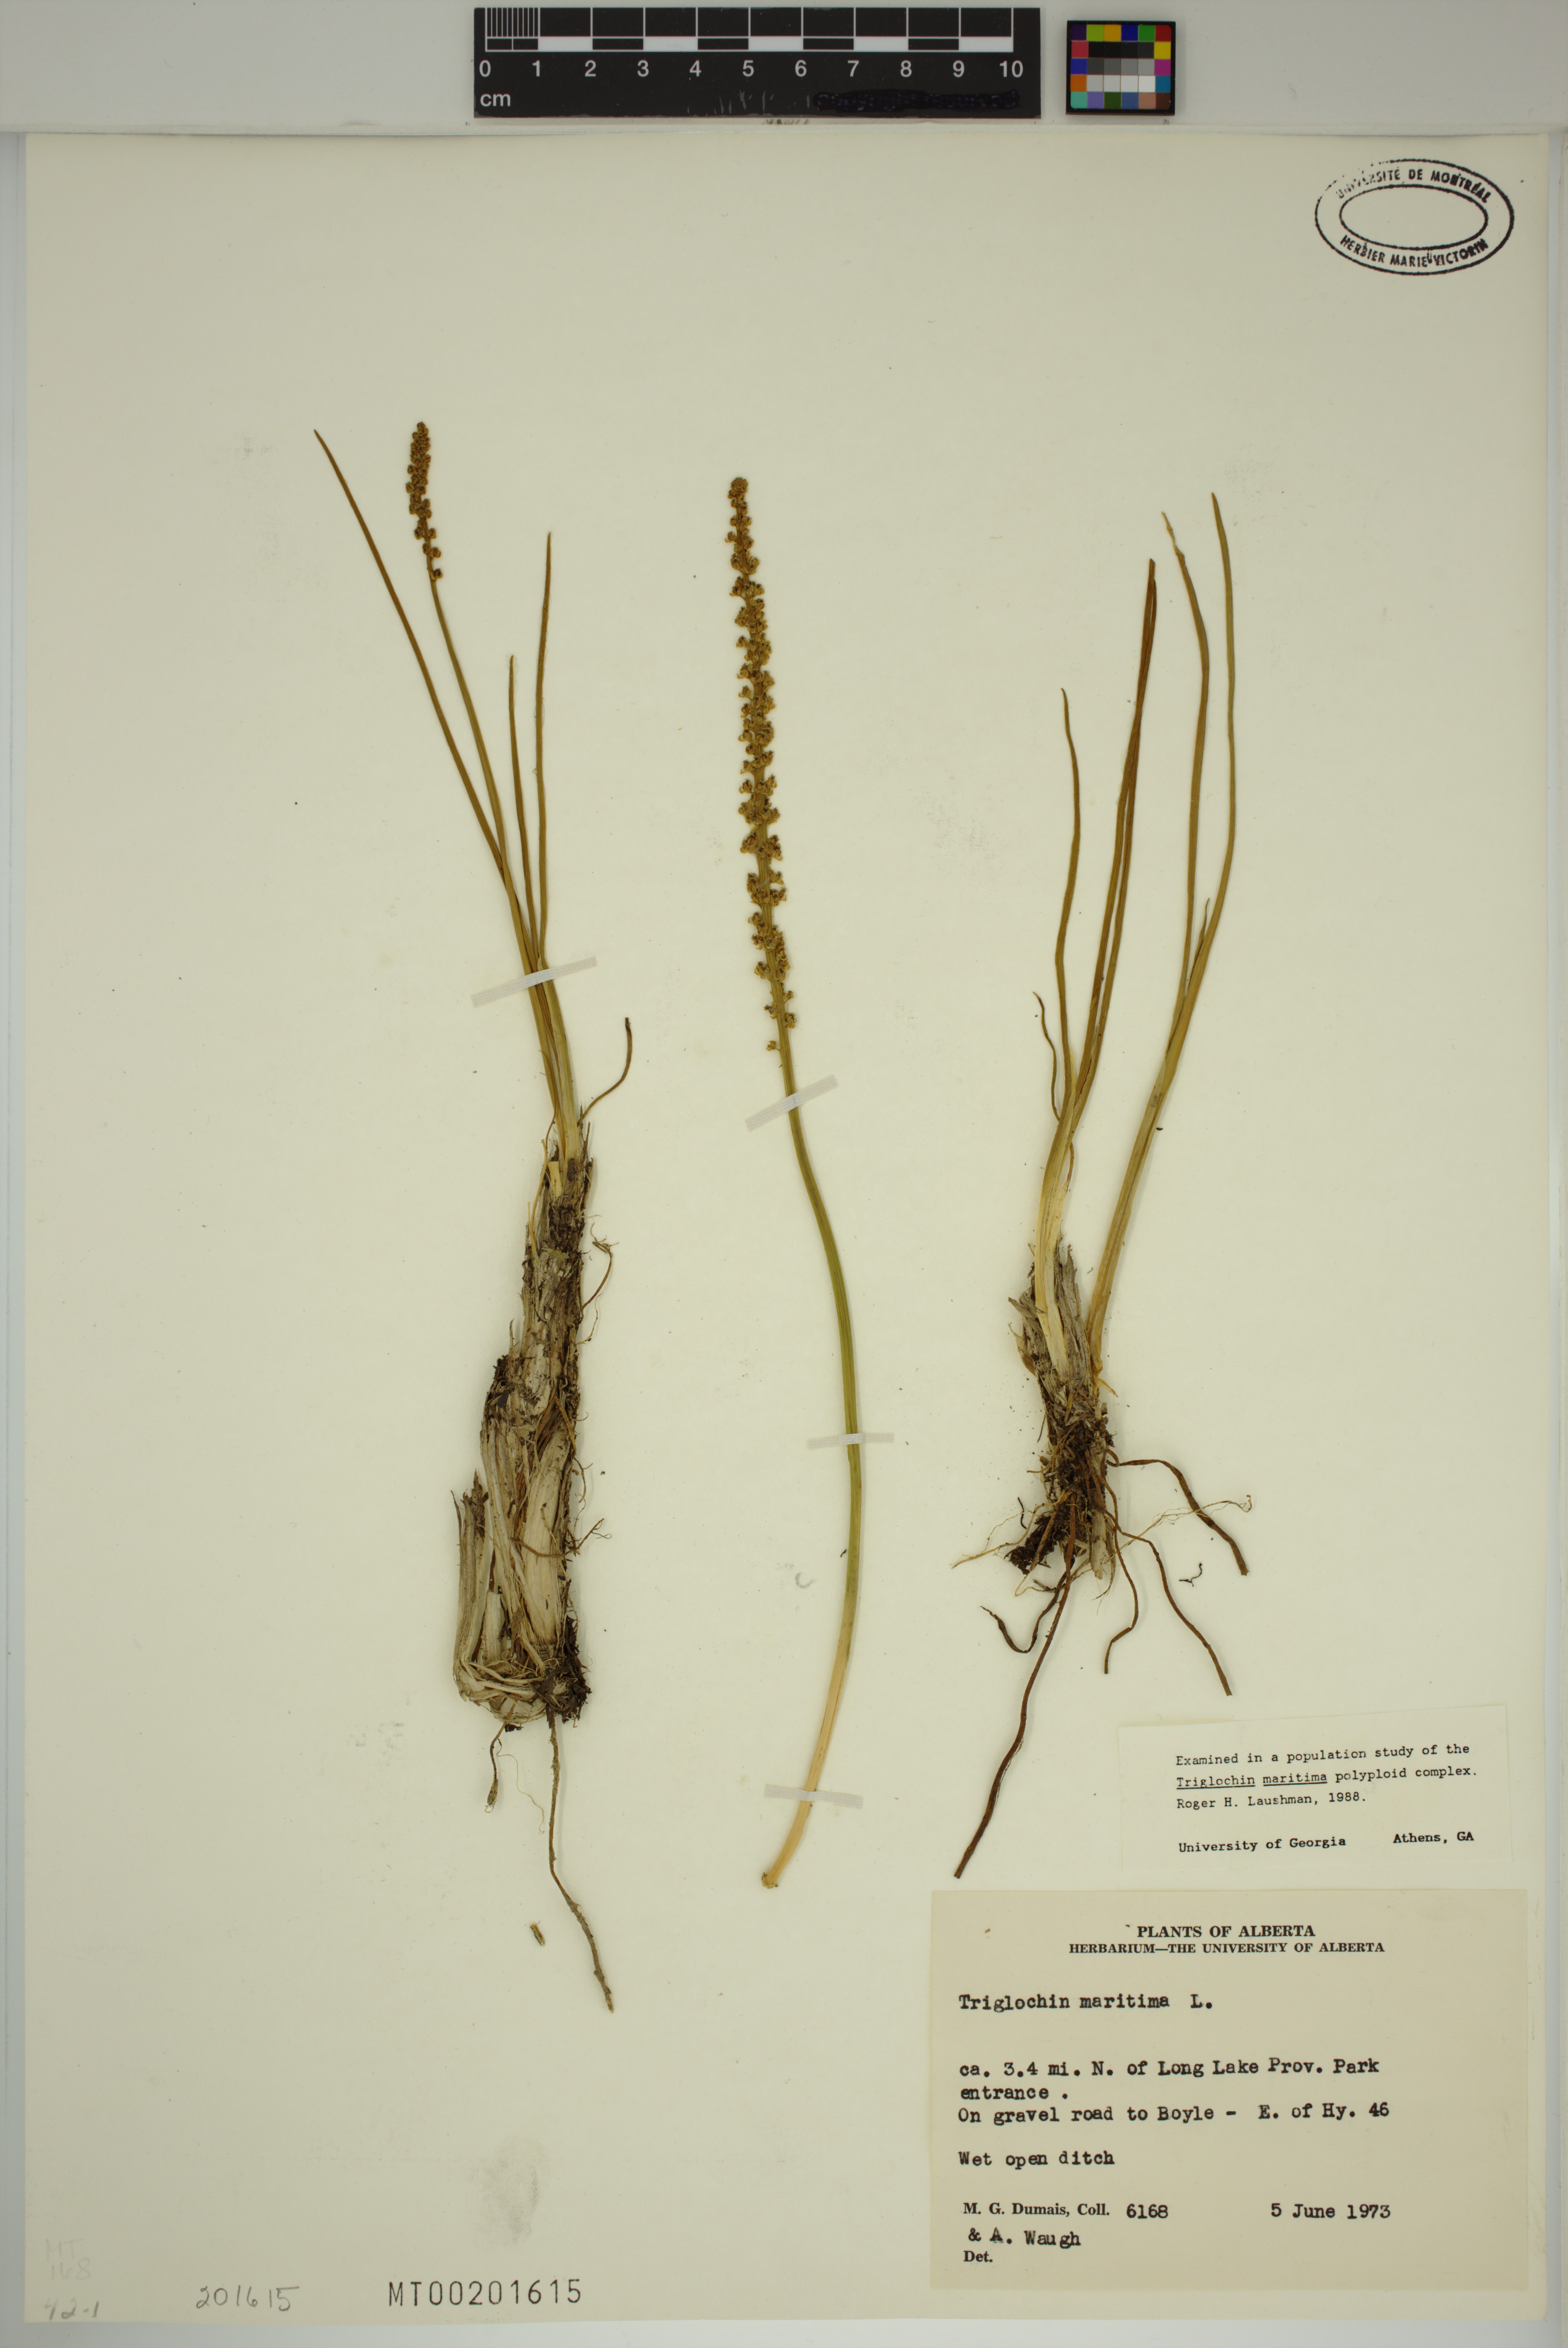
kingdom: Plantae
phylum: Tracheophyta
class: Liliopsida
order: Alismatales
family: Juncaginaceae
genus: Triglochin
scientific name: Triglochin maritima
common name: Sea arrowgrass
